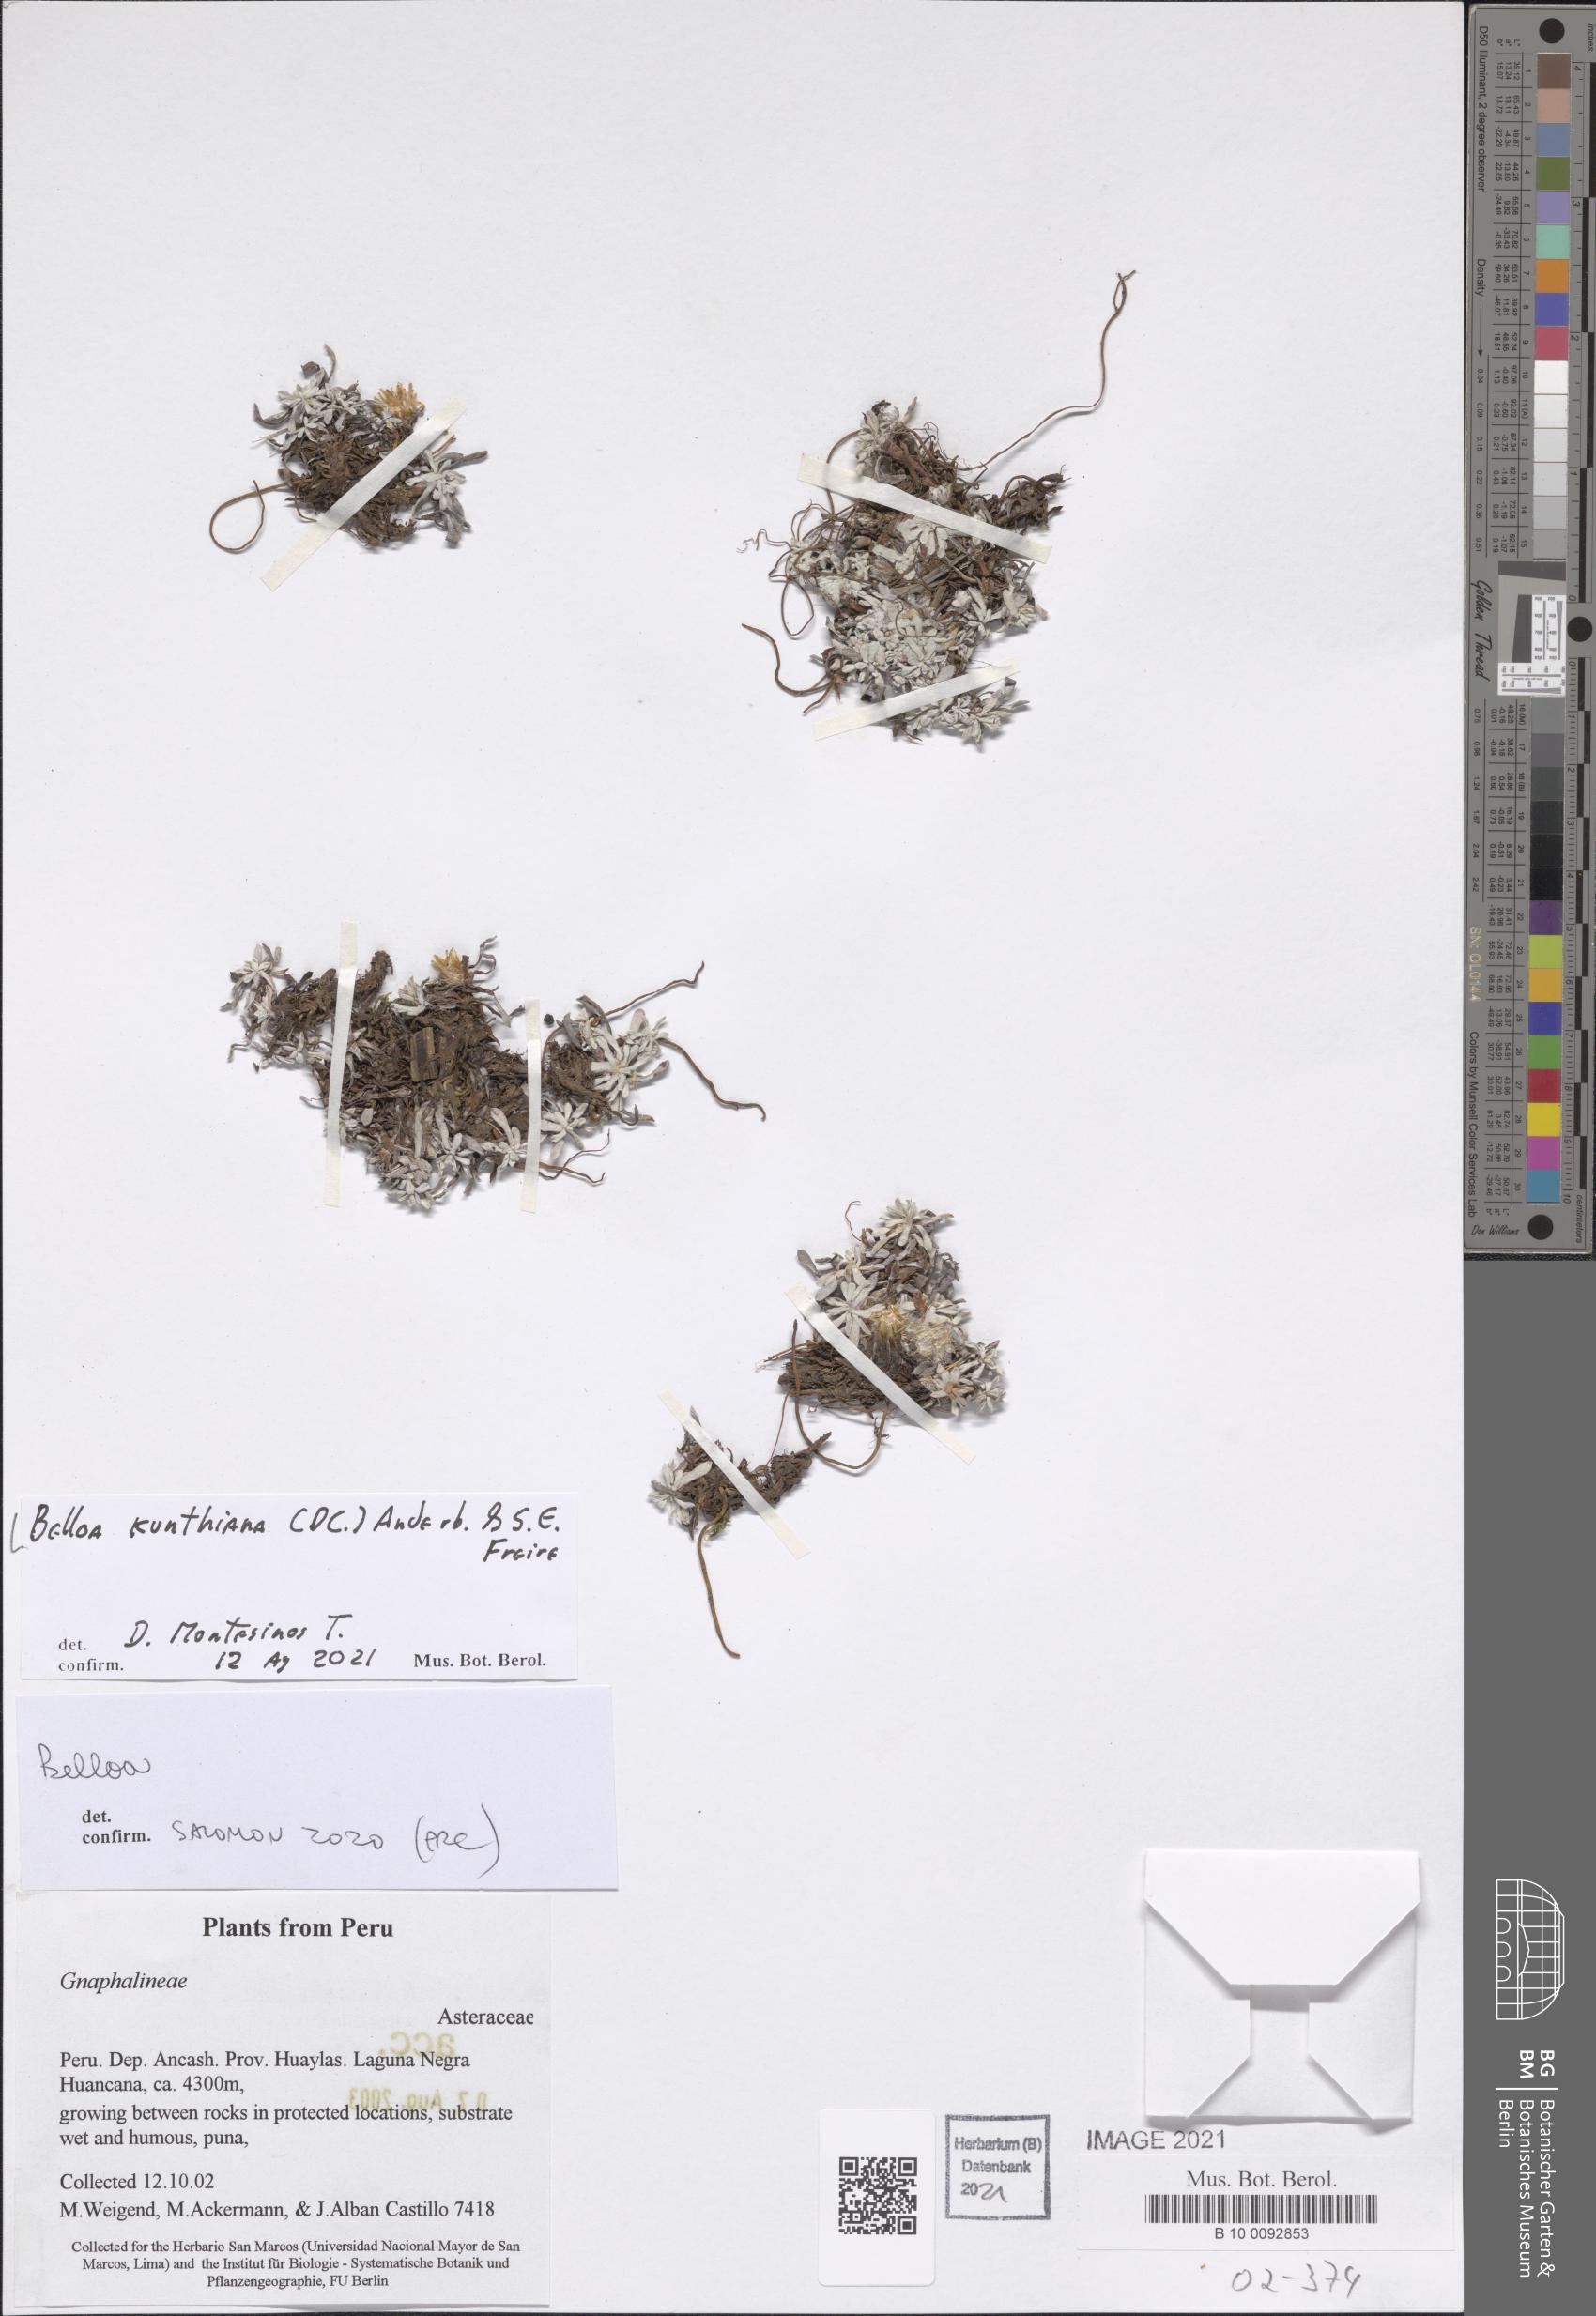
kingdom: Plantae
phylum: Tracheophyta
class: Magnoliopsida
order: Asterales
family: Asteraceae
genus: Mniodes
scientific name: Mniodes kunthiana
